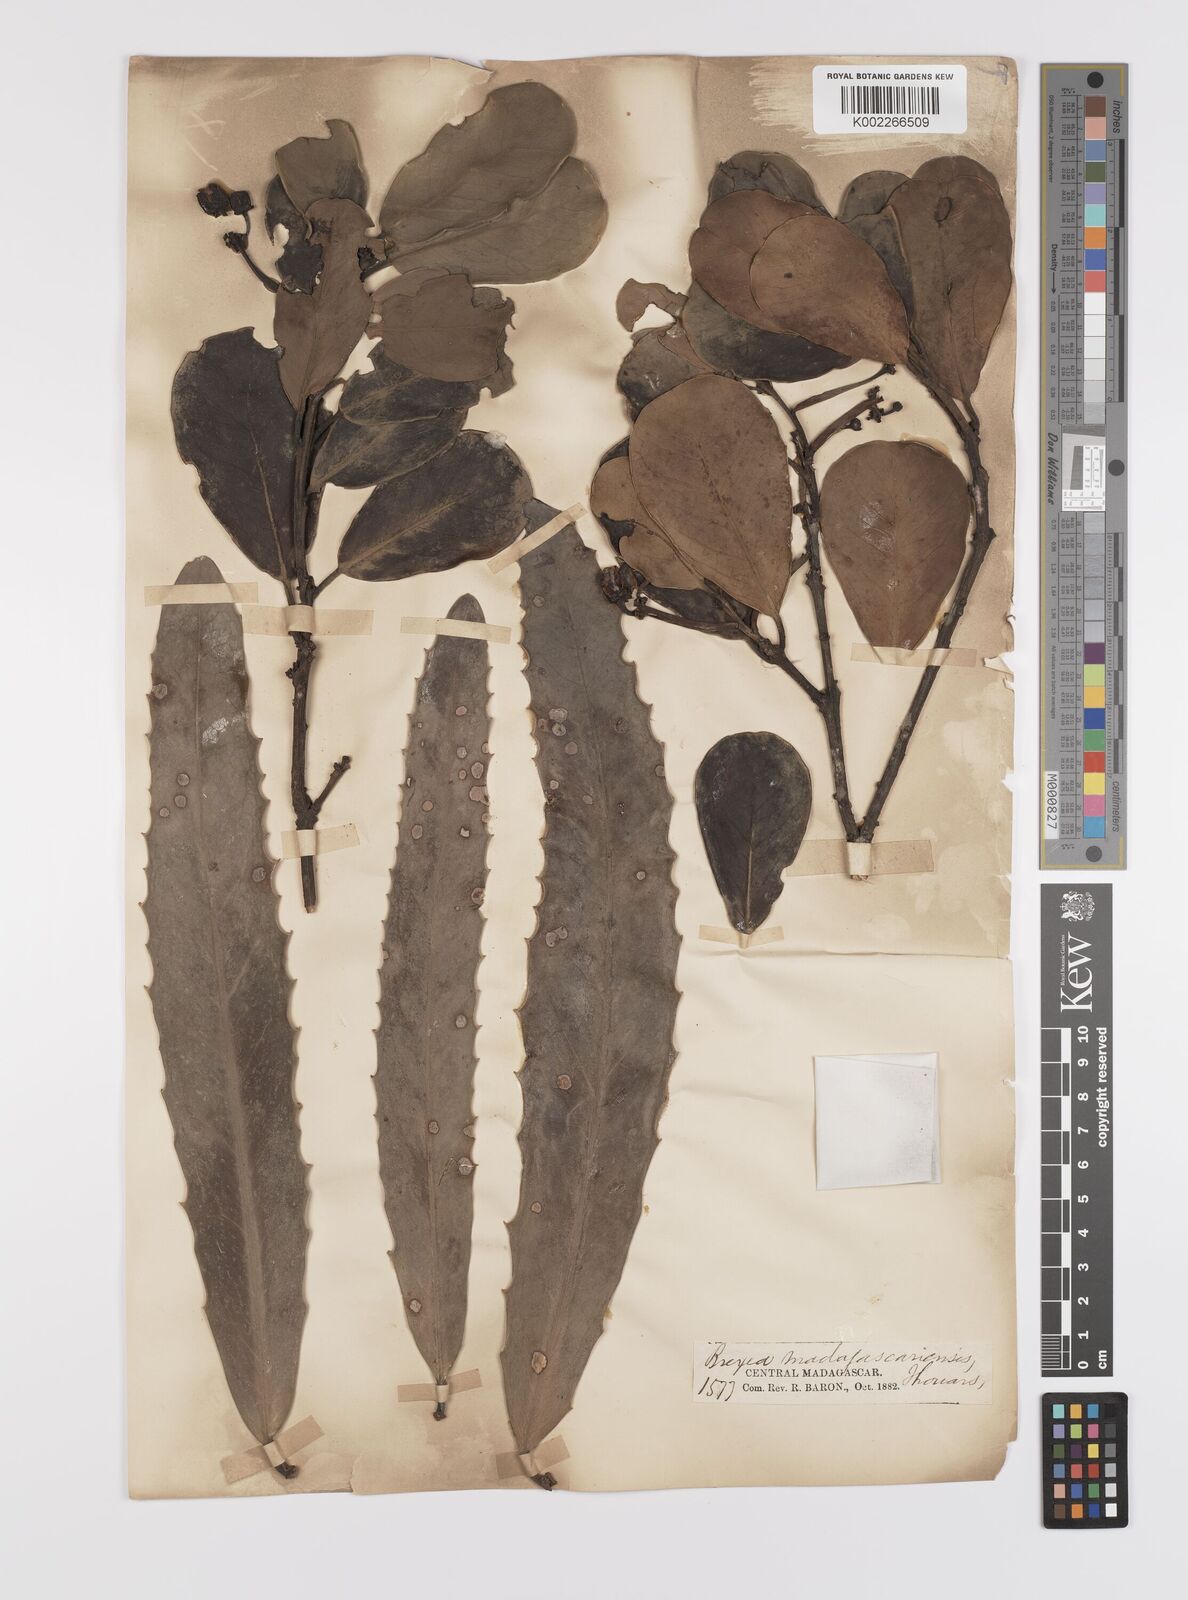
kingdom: Plantae
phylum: Tracheophyta
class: Magnoliopsida
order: Celastrales
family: Celastraceae
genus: Brexia
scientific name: Brexia madagascariensis
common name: Brexia
